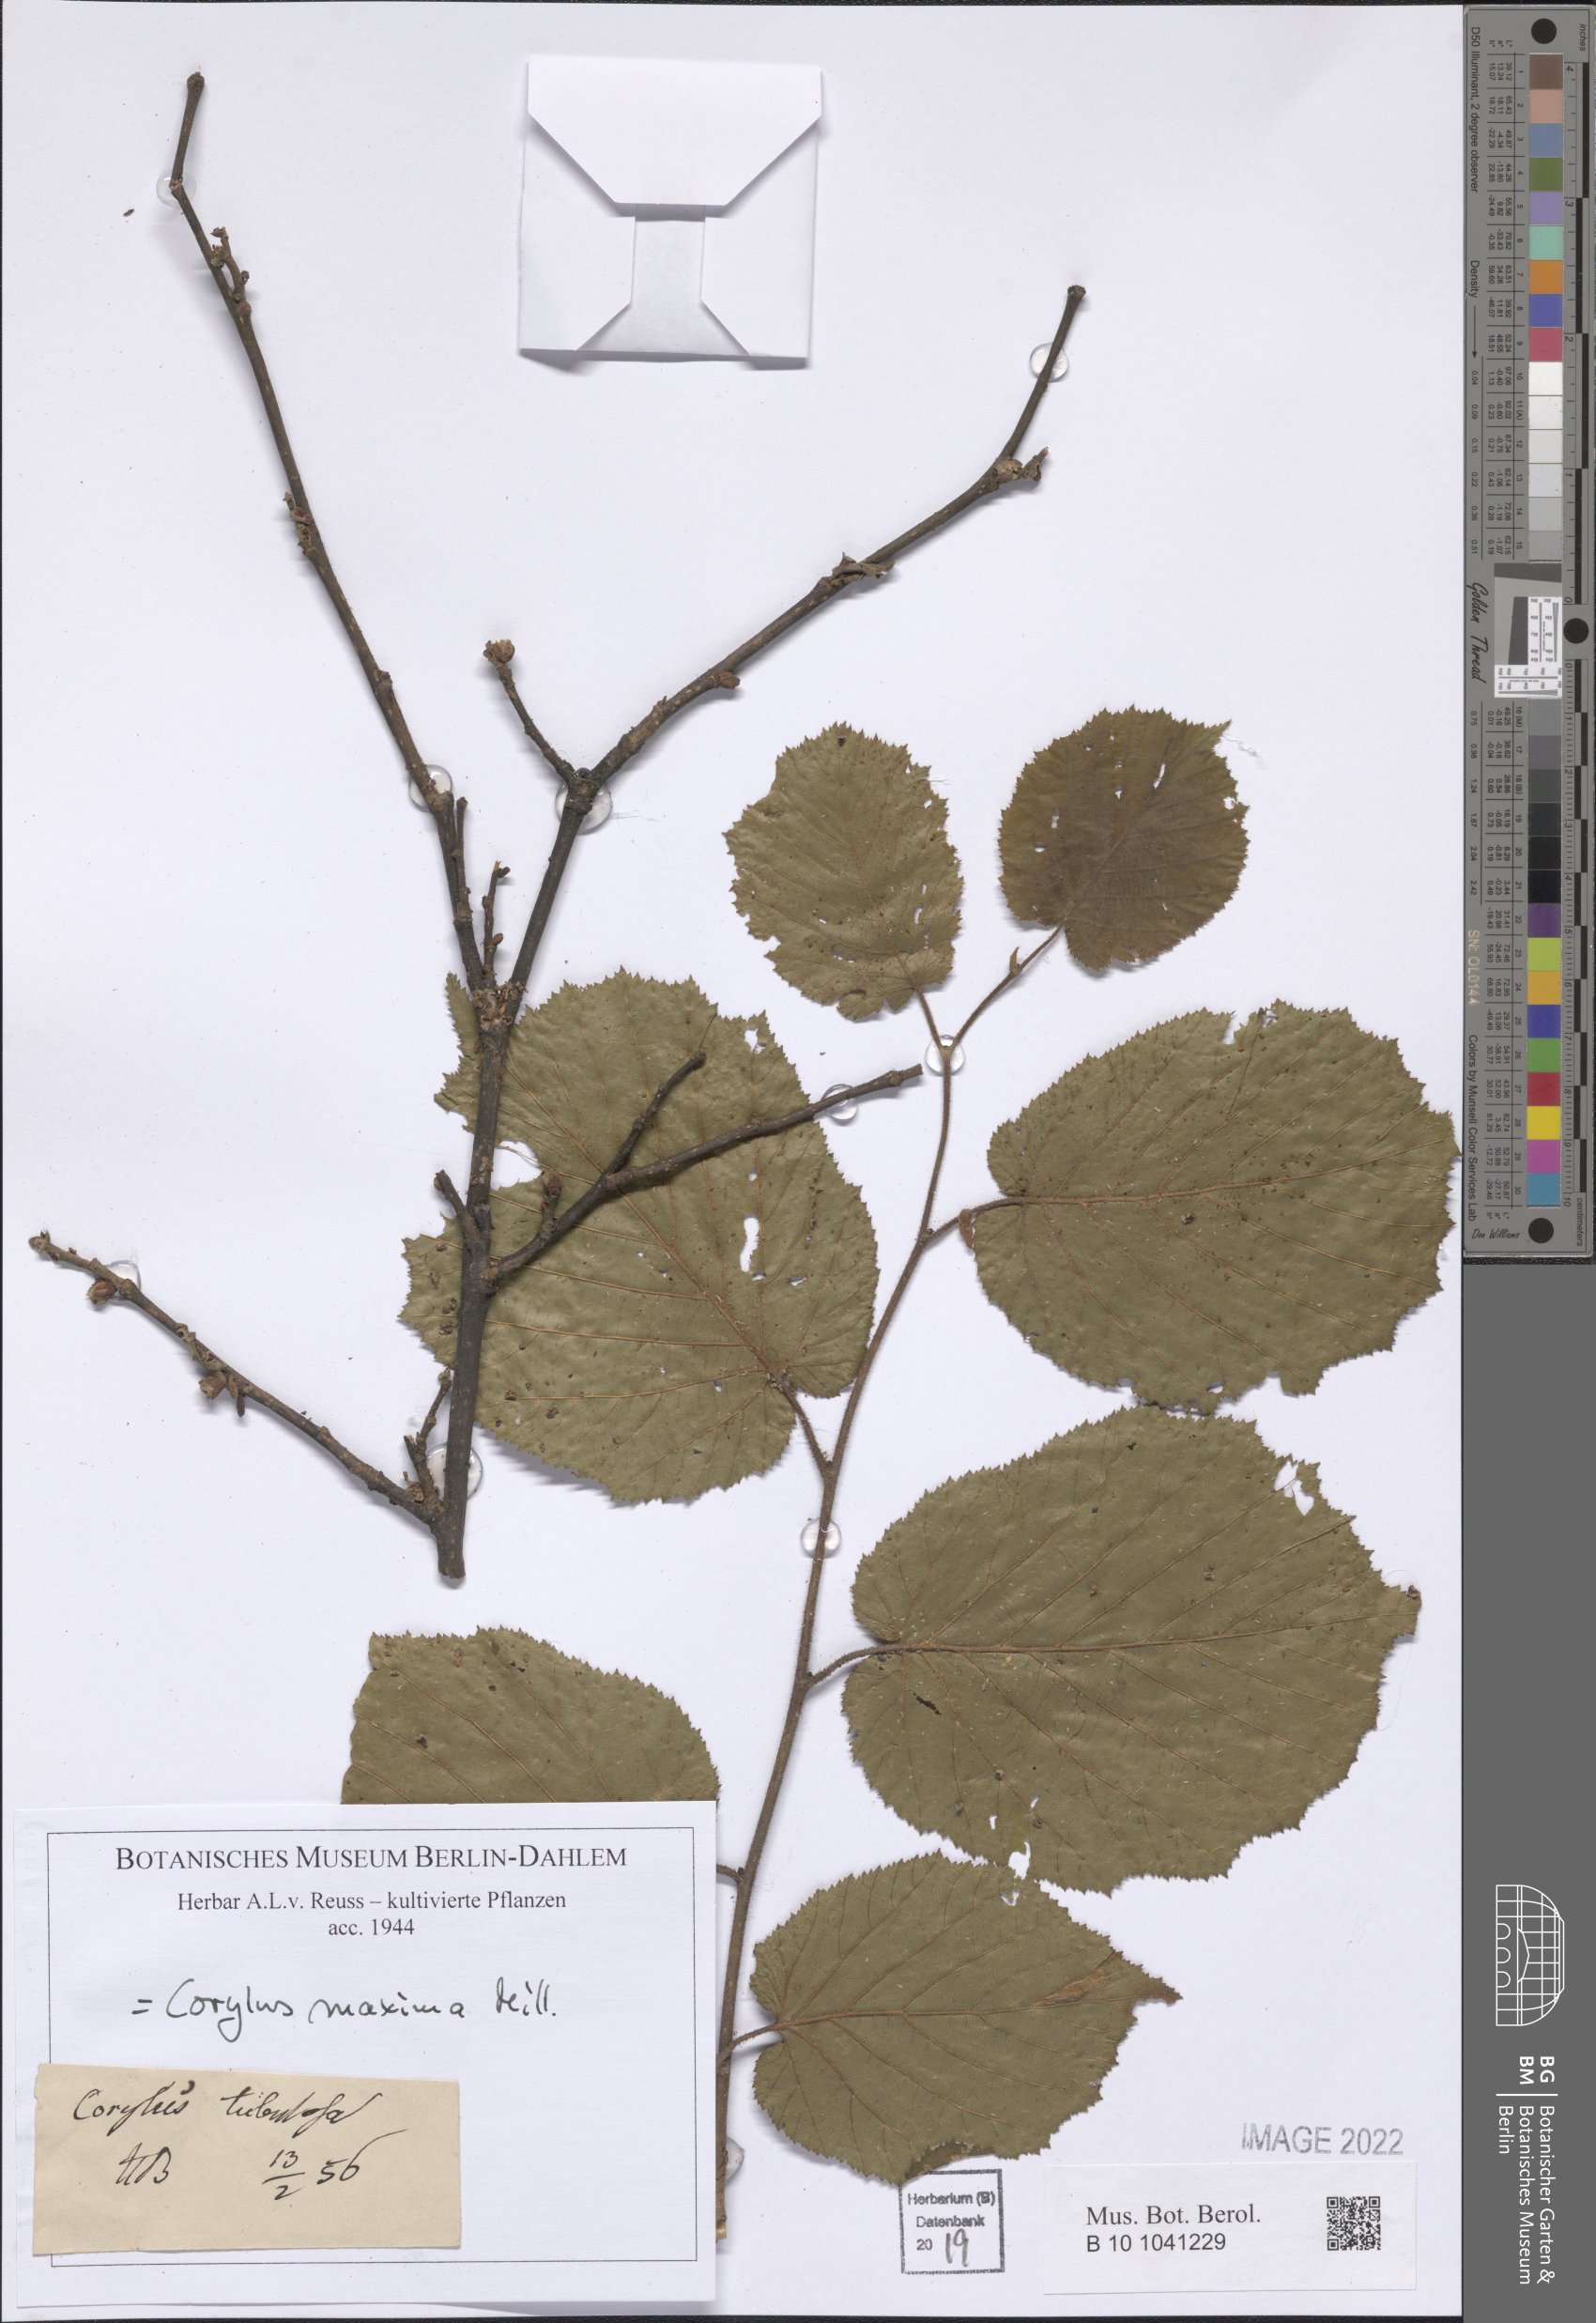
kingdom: Plantae
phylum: Tracheophyta
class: Magnoliopsida
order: Fagales
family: Betulaceae
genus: Corylus
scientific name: Corylus maxima
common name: Filbert
